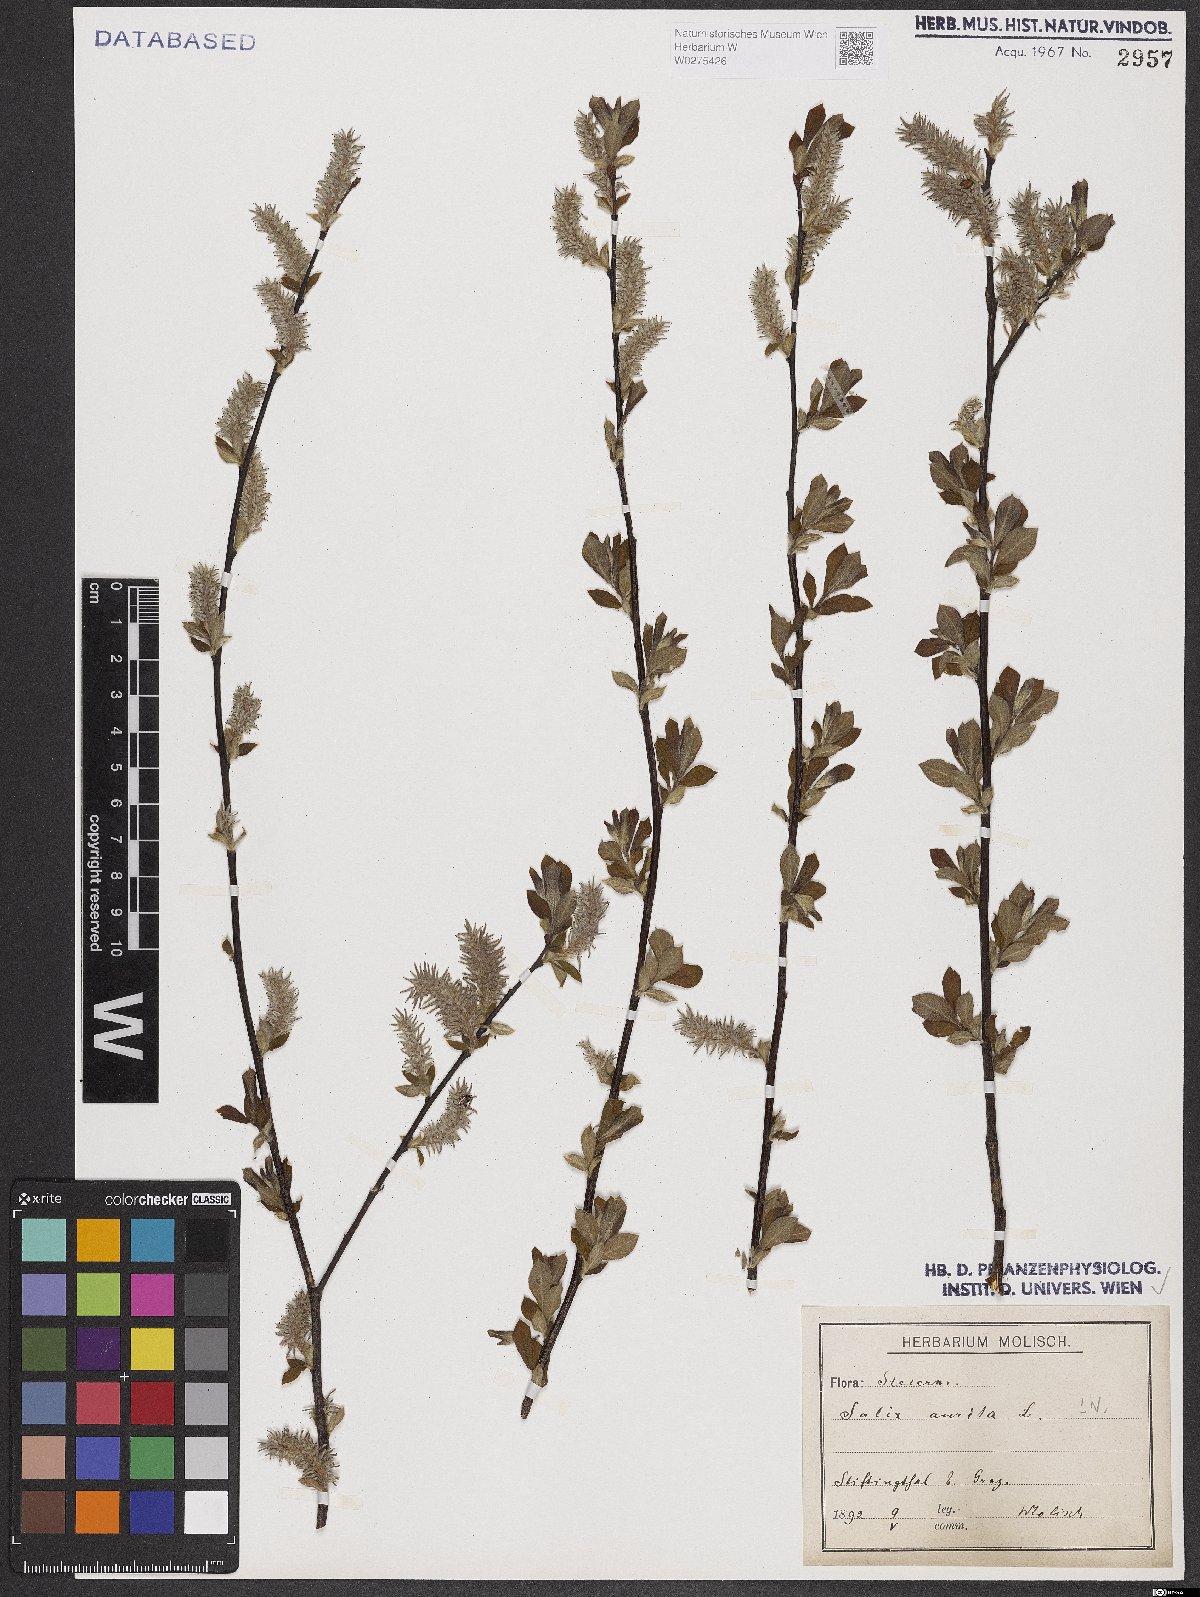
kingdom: Plantae
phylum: Tracheophyta
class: Magnoliopsida
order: Malpighiales
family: Salicaceae
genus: Salix
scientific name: Salix aurita
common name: Eared willow
